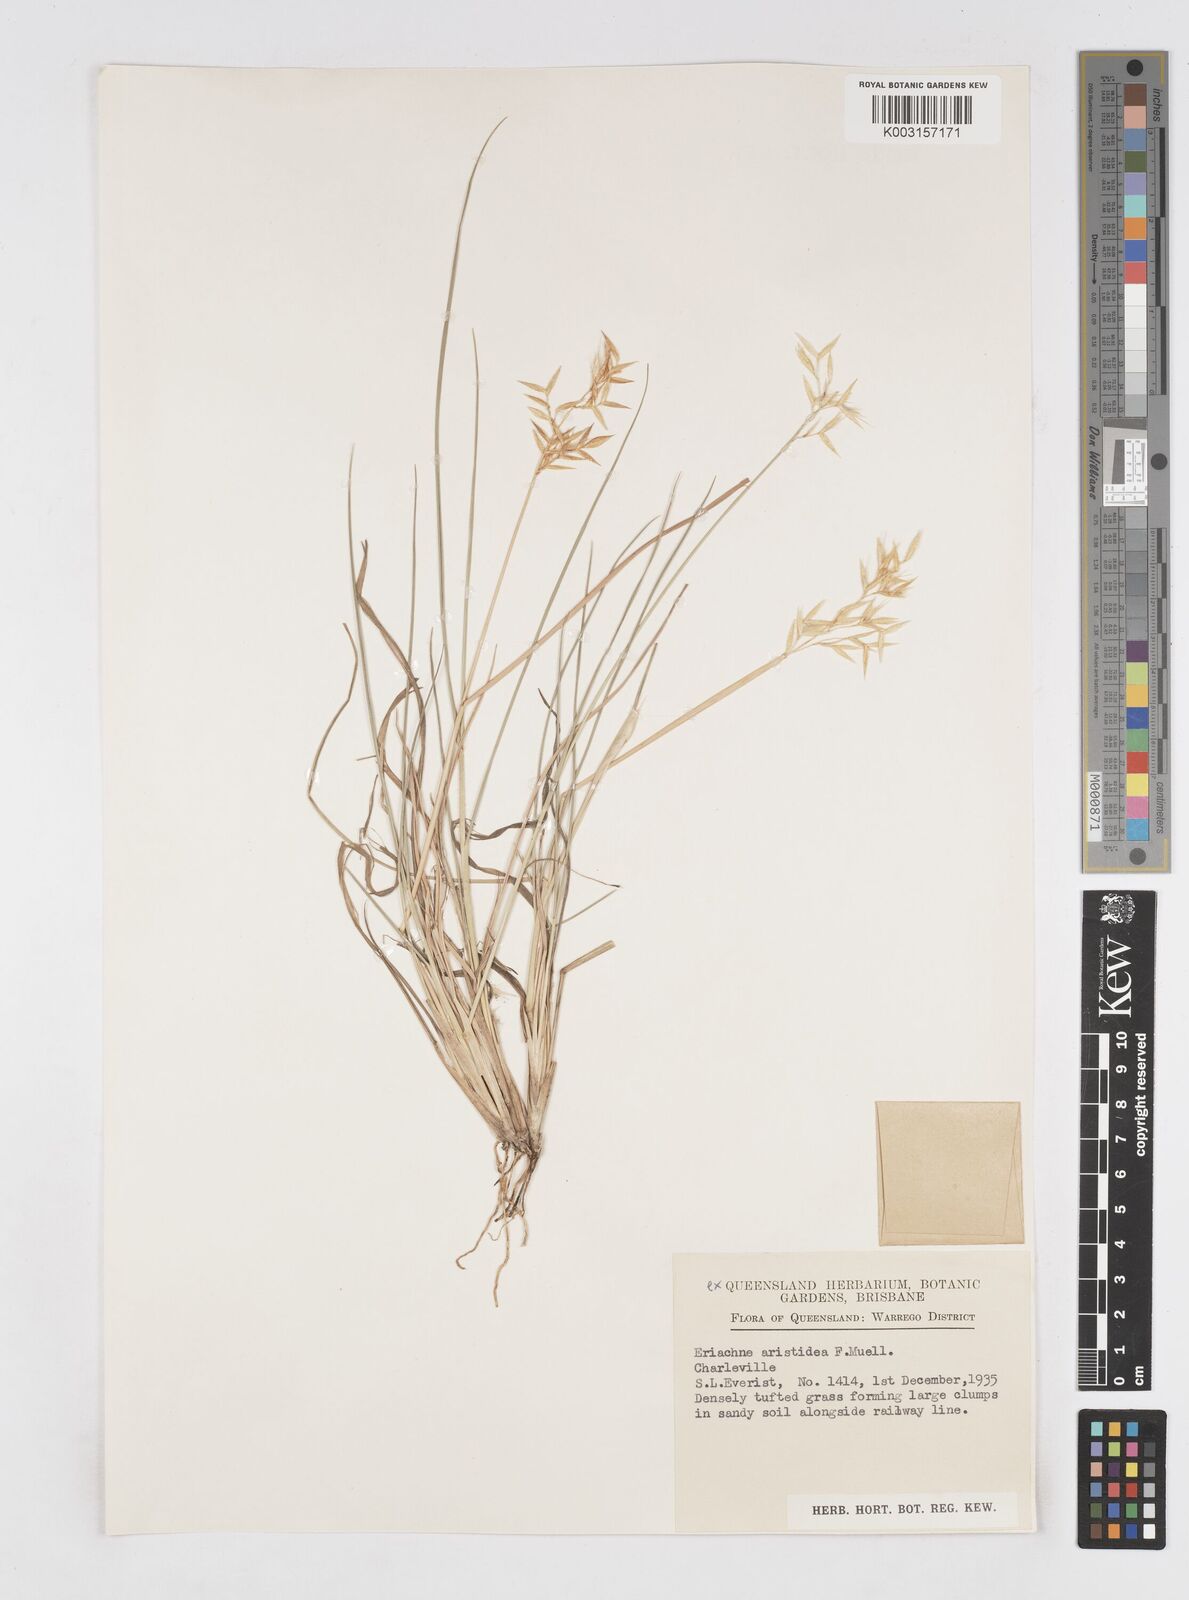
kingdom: Plantae
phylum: Tracheophyta
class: Liliopsida
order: Poales
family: Poaceae
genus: Eriachne
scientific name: Eriachne aristidea
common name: Three-awn wanderrie grass
